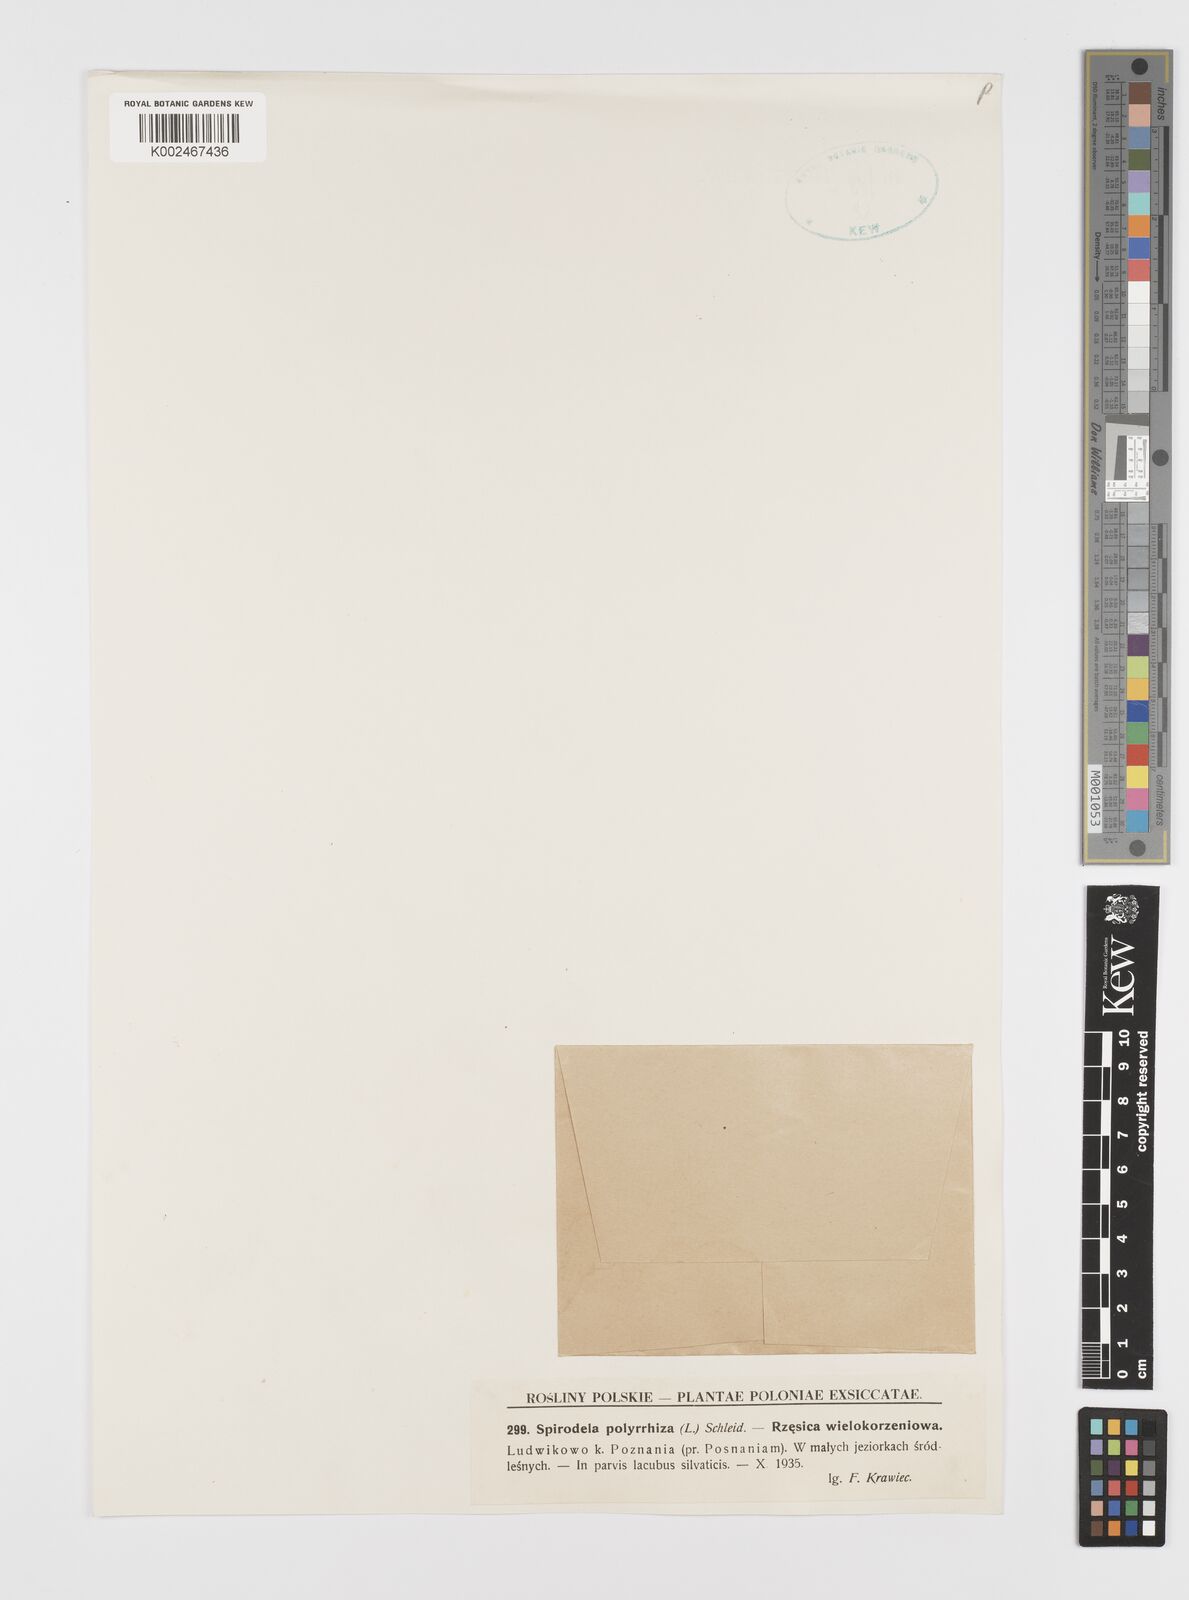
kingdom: Plantae
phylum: Tracheophyta
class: Liliopsida
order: Alismatales
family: Araceae
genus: Spirodela
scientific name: Spirodela polyrhiza
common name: Great duckweed
